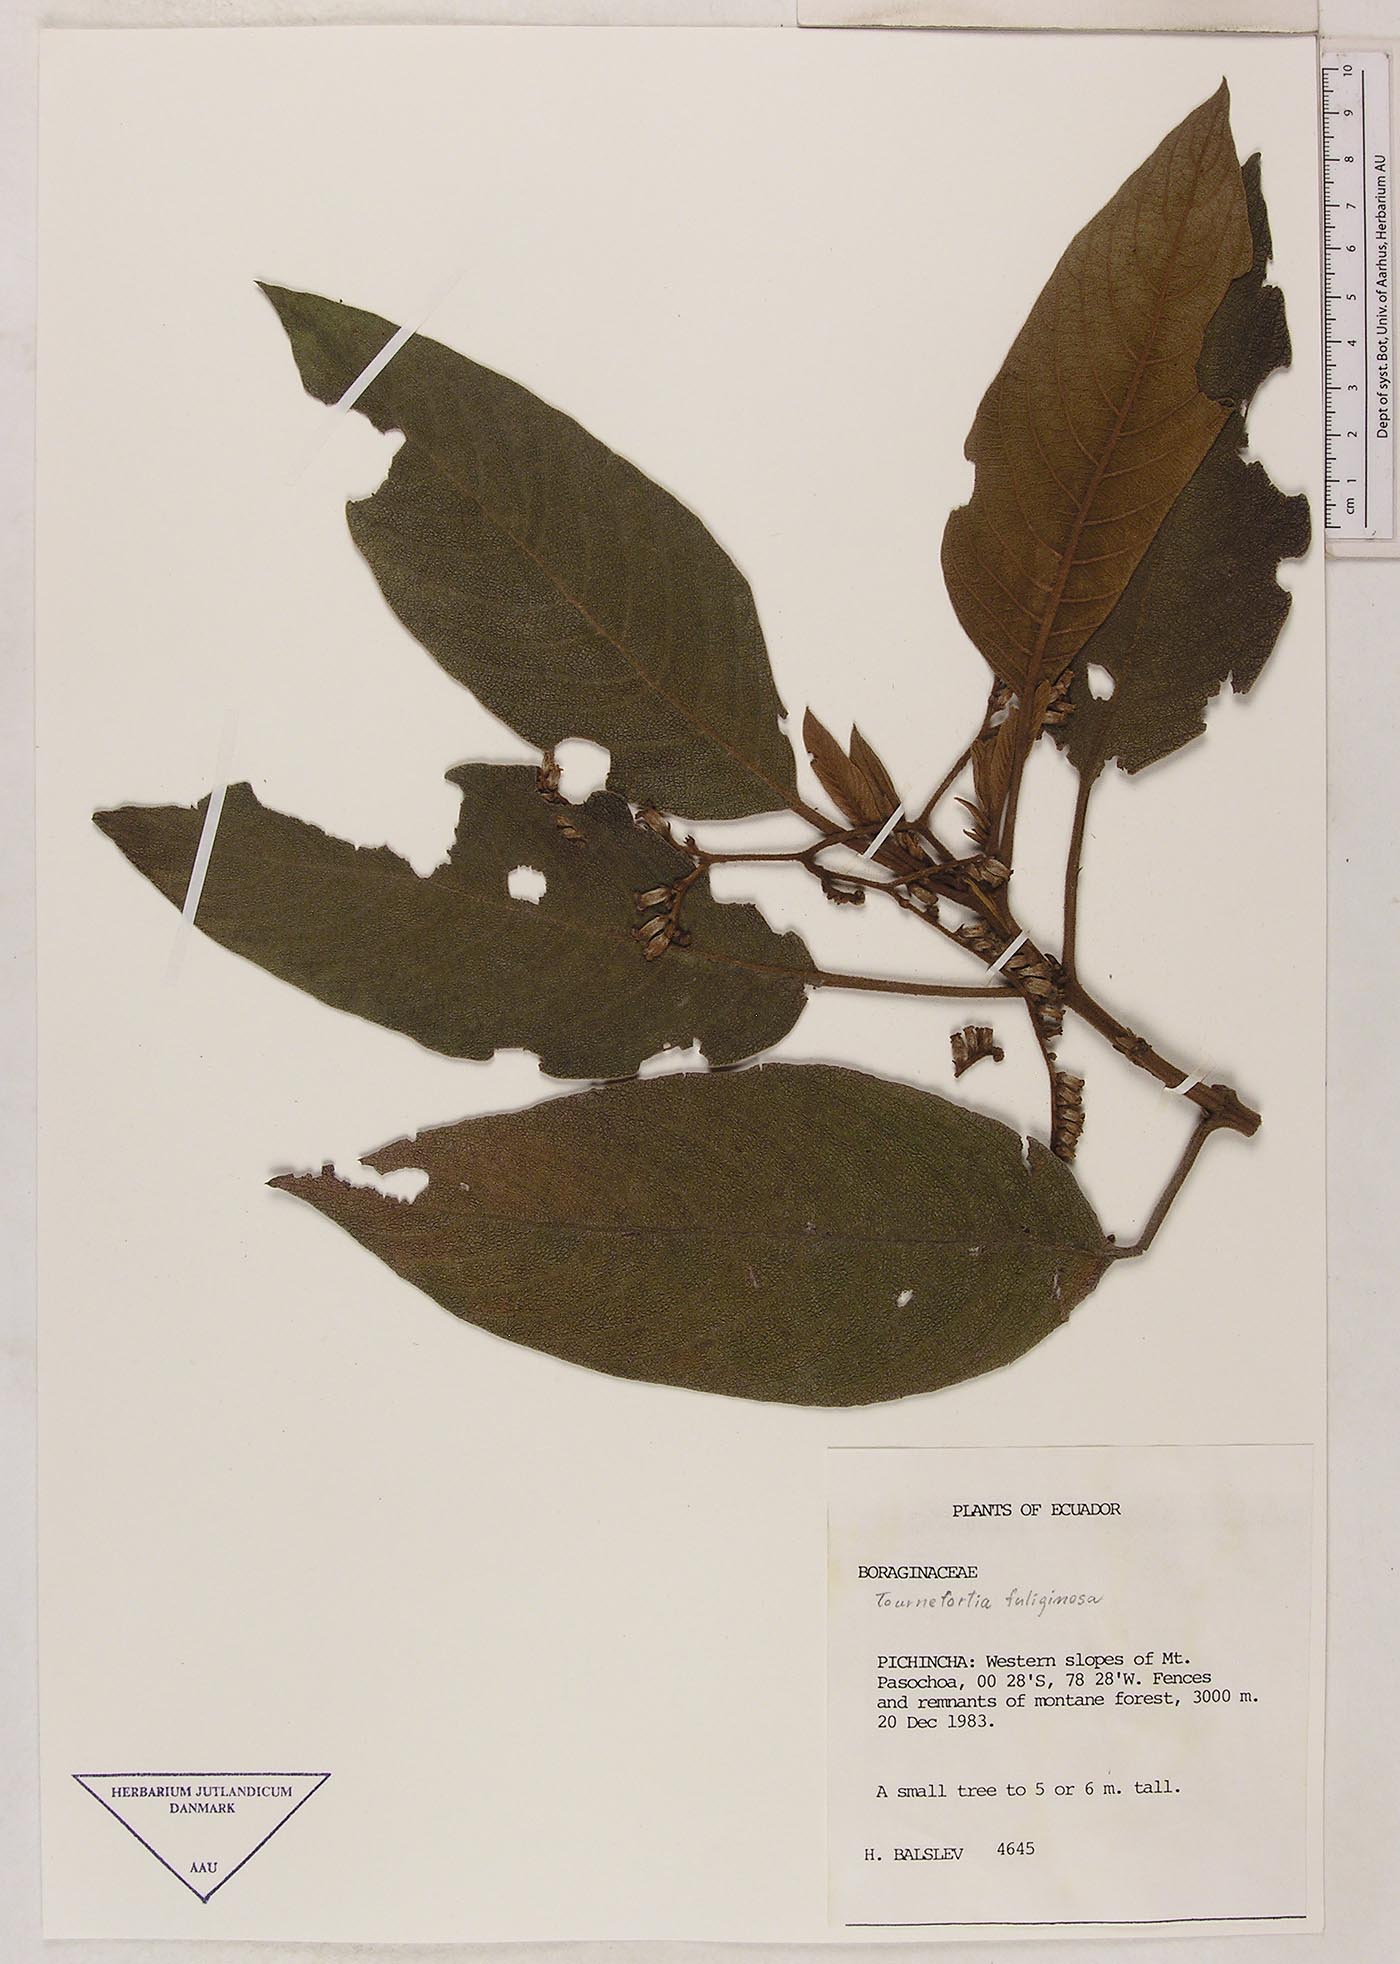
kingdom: Plantae
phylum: Tracheophyta
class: Magnoliopsida
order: Boraginales
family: Heliotropiaceae
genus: Heliotropium
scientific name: Heliotropium fuliginosum
